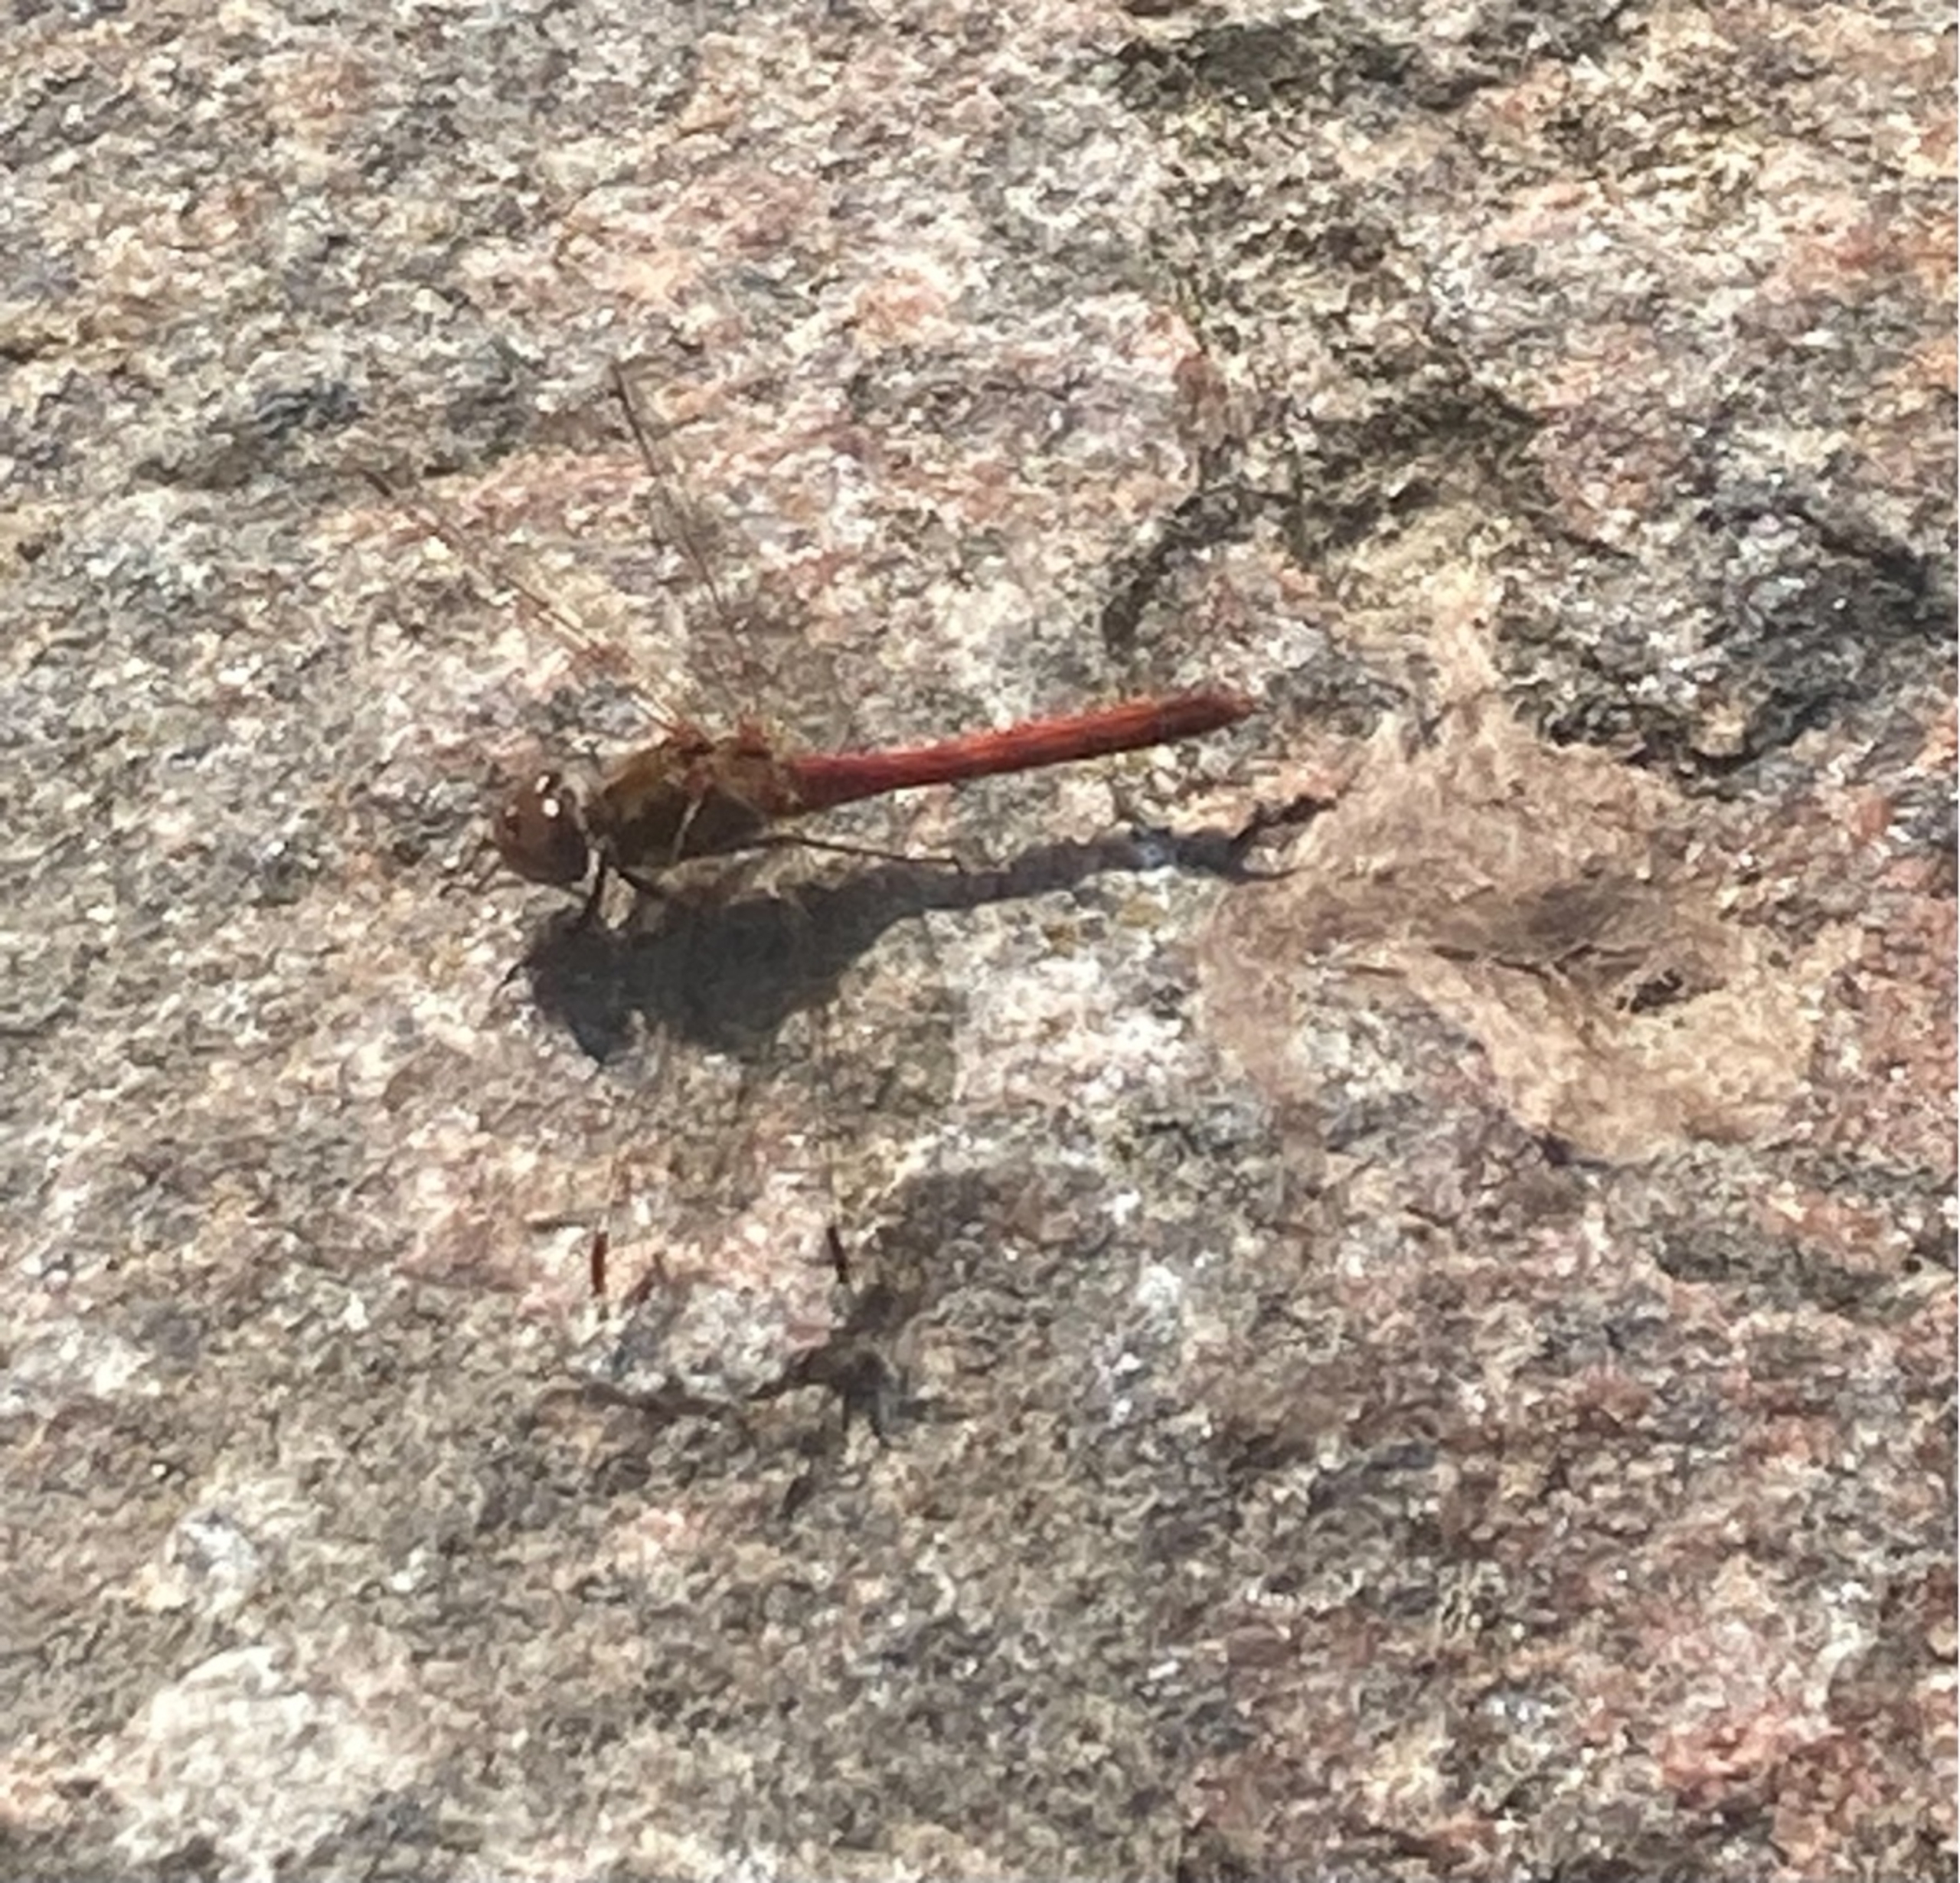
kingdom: Animalia
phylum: Arthropoda
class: Insecta
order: Odonata
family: Libellulidae
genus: Sympetrum
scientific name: Sympetrum
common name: Hedelibeller
